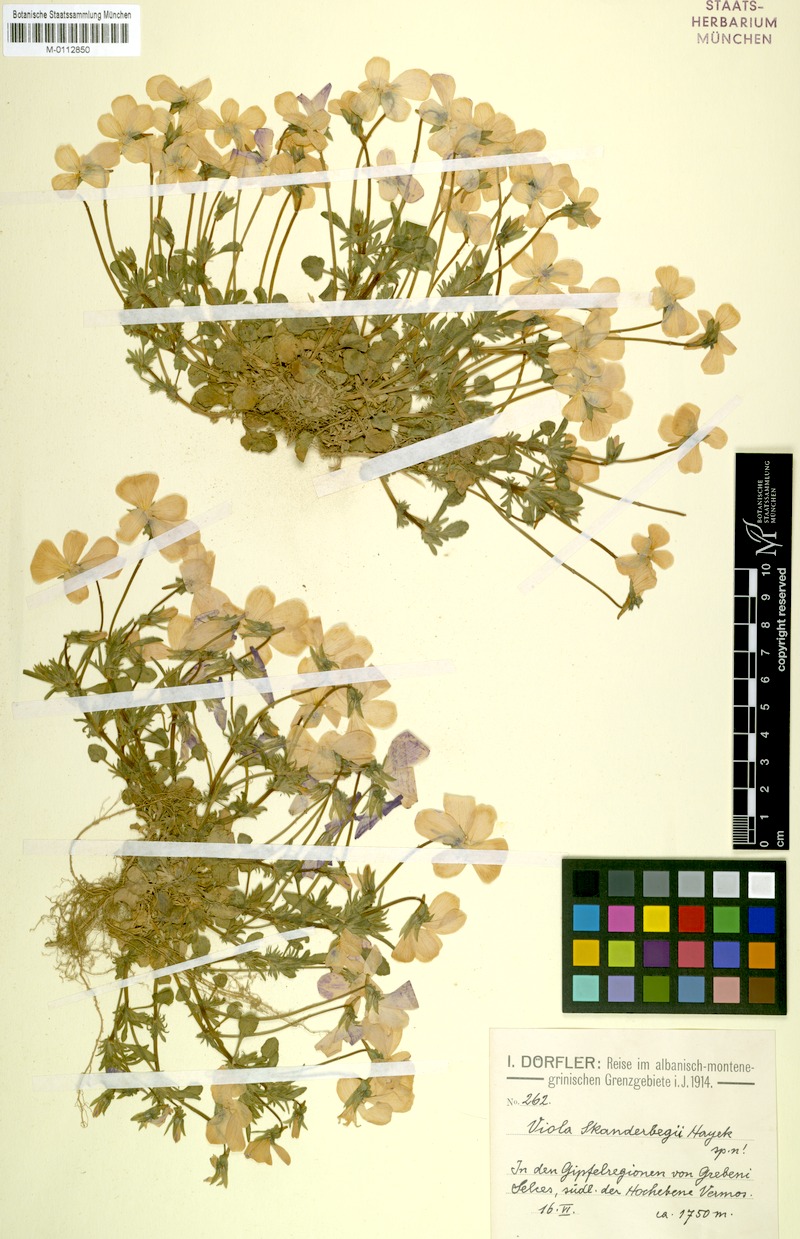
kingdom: Plantae
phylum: Tracheophyta
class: Magnoliopsida
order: Malpighiales
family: Violaceae
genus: Viola
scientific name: Viola skanderbegii
